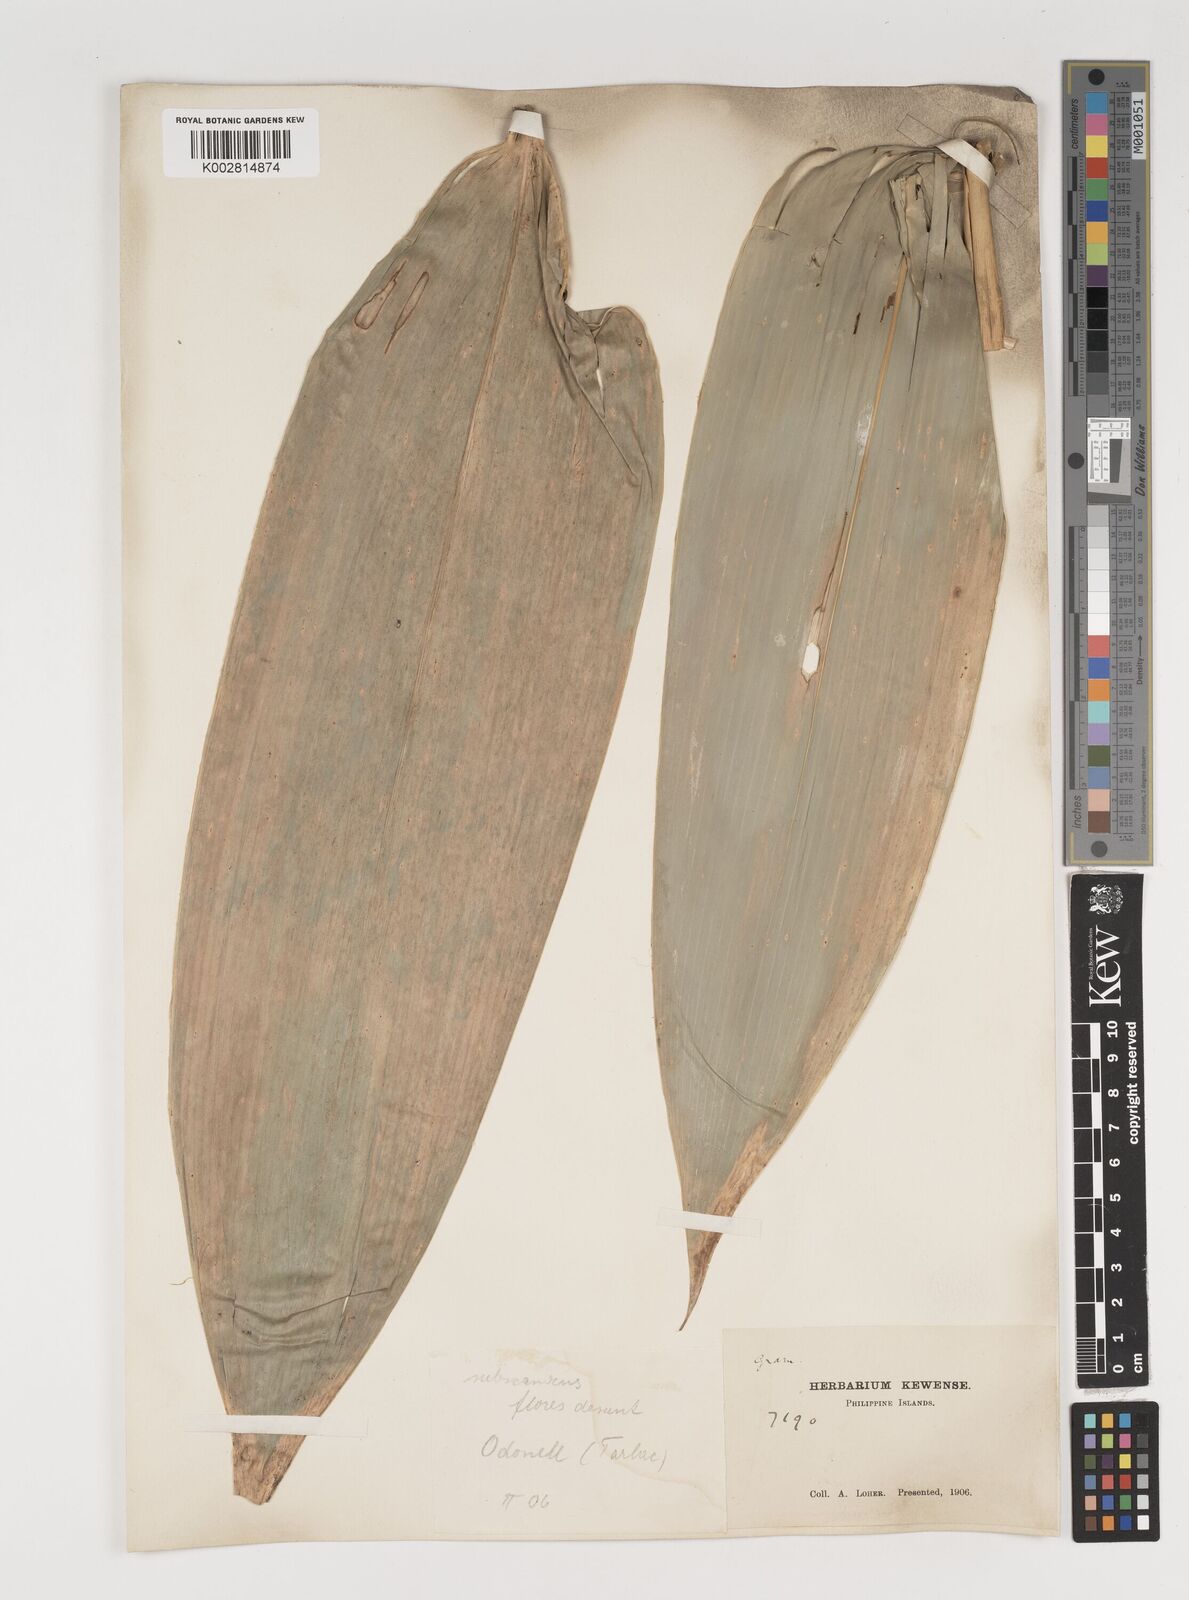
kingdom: Plantae
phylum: Tracheophyta
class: Liliopsida
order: Poales
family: Poaceae
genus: Fimbribambusa
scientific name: Fimbribambusa horsfieldii
